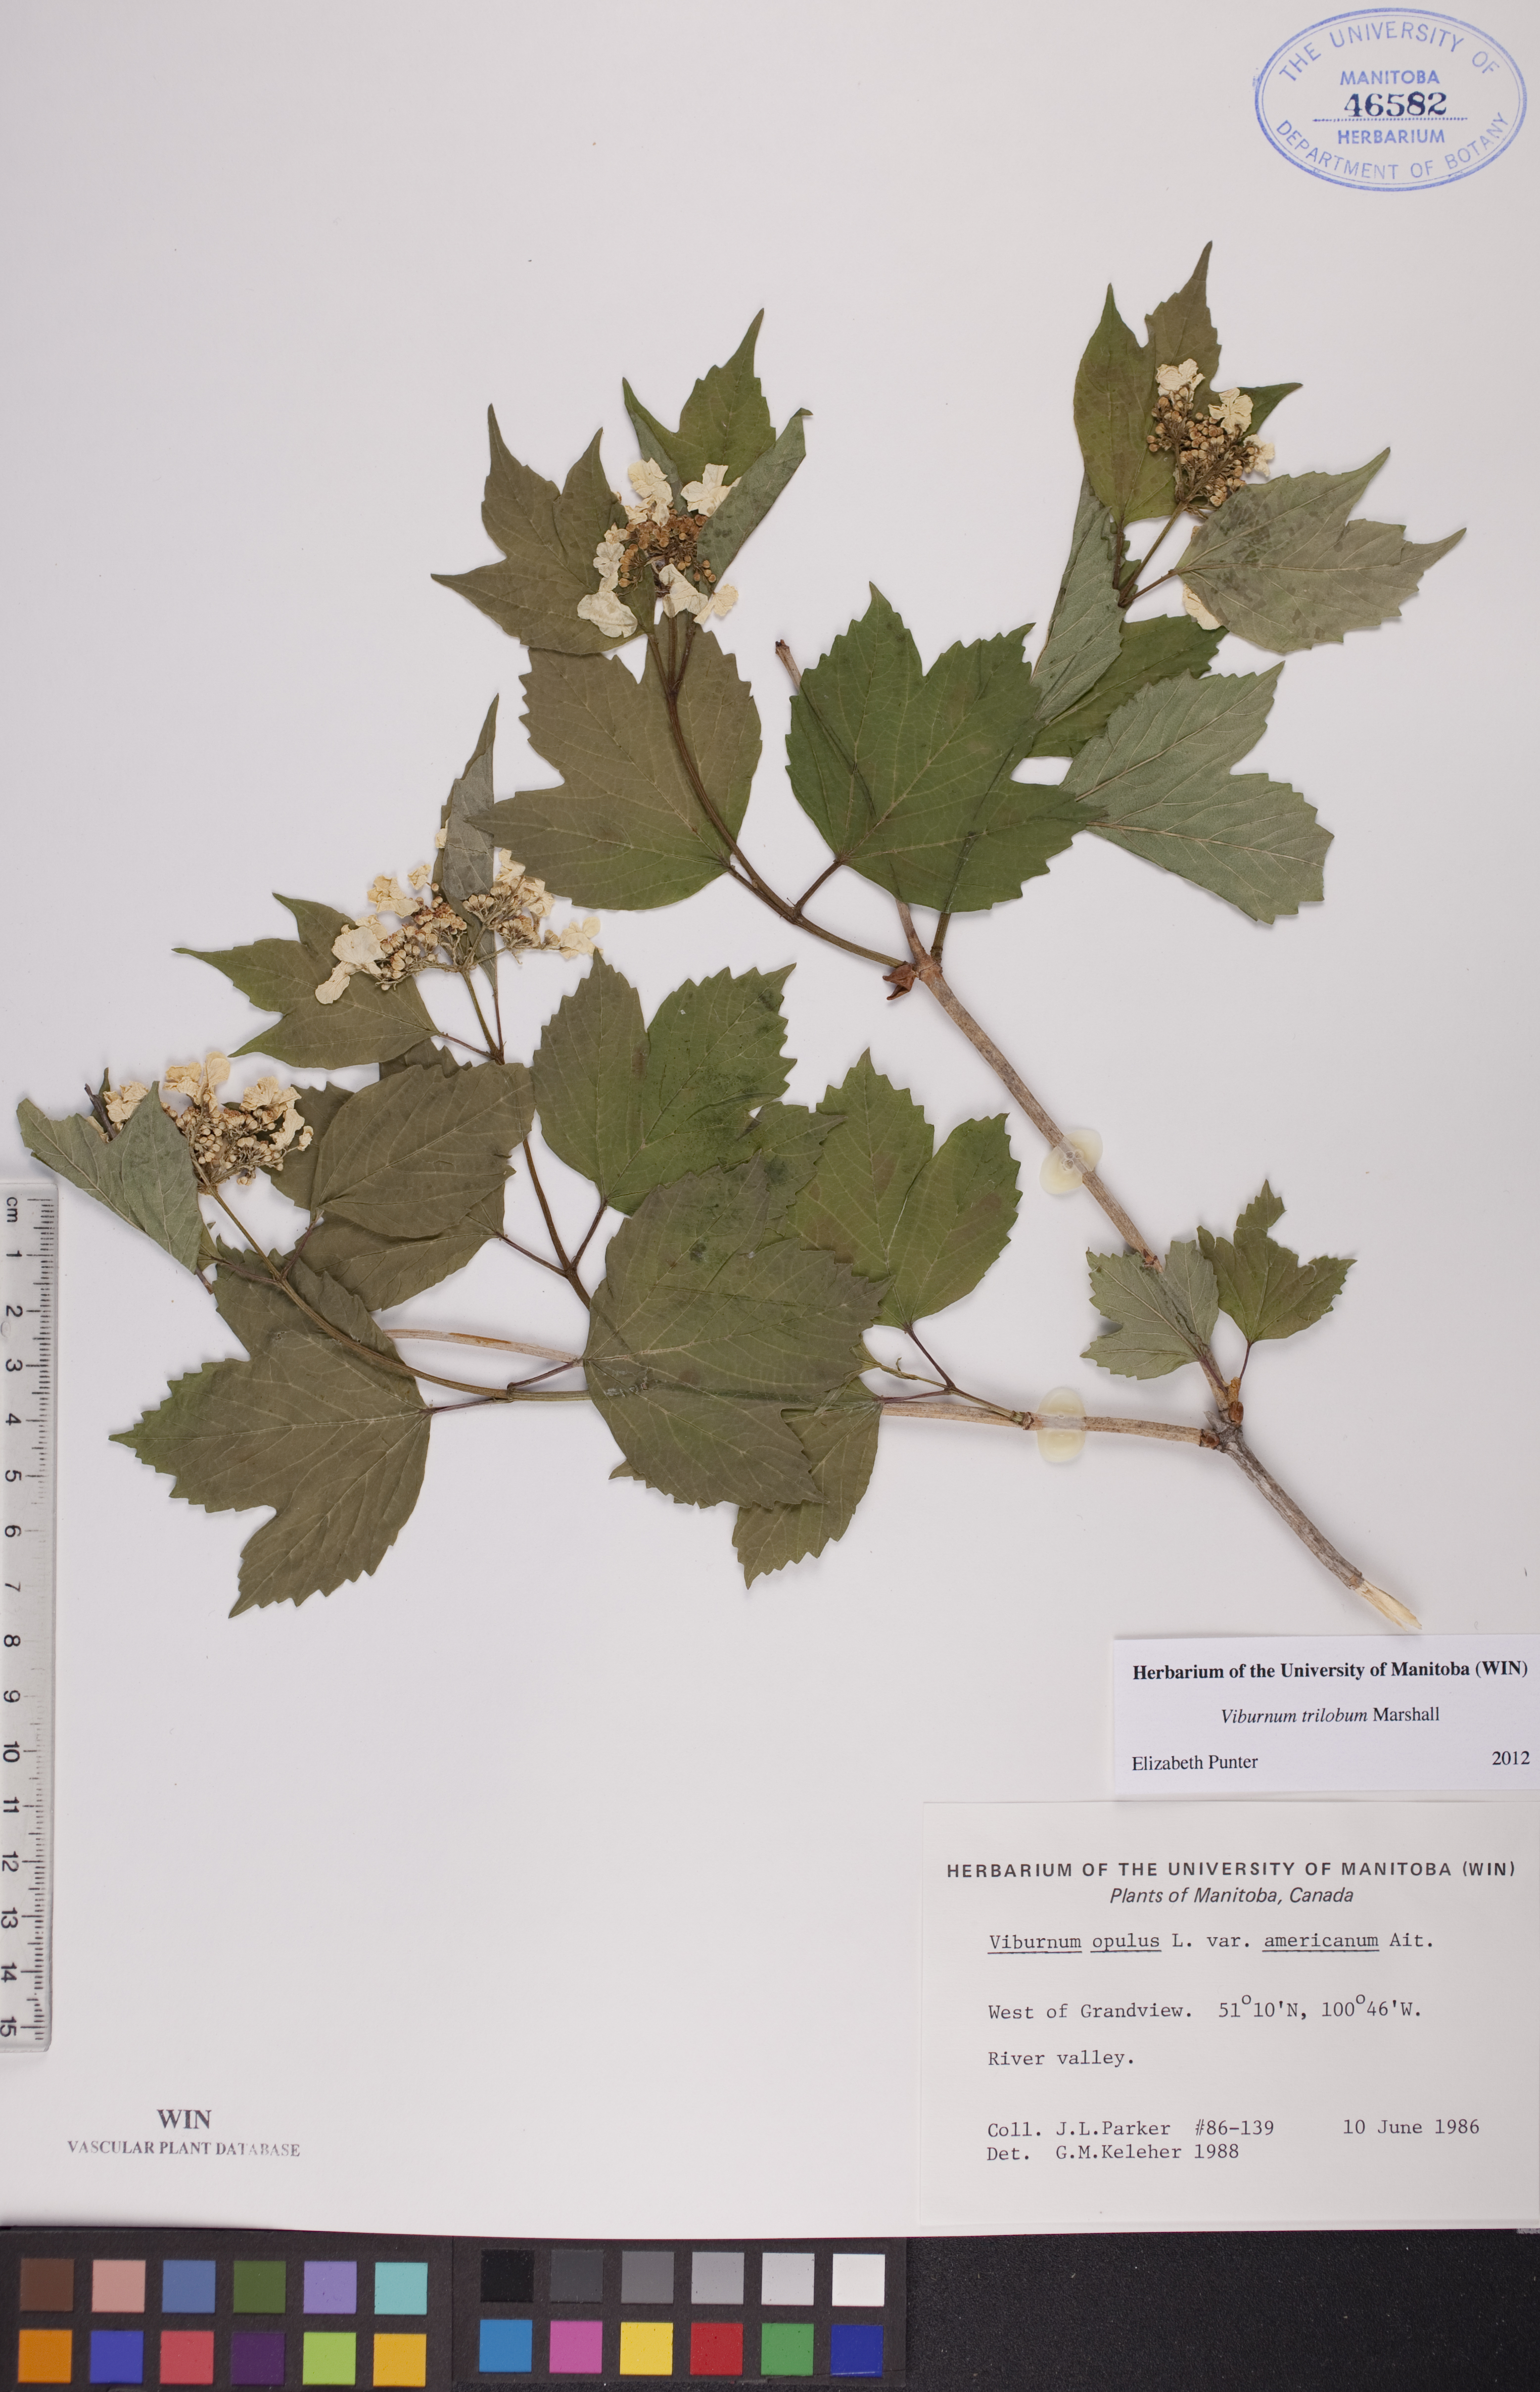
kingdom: Plantae
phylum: Tracheophyta
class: Magnoliopsida
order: Dipsacales
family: Viburnaceae
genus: Viburnum
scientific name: Viburnum trilobum
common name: American cranberrybush
